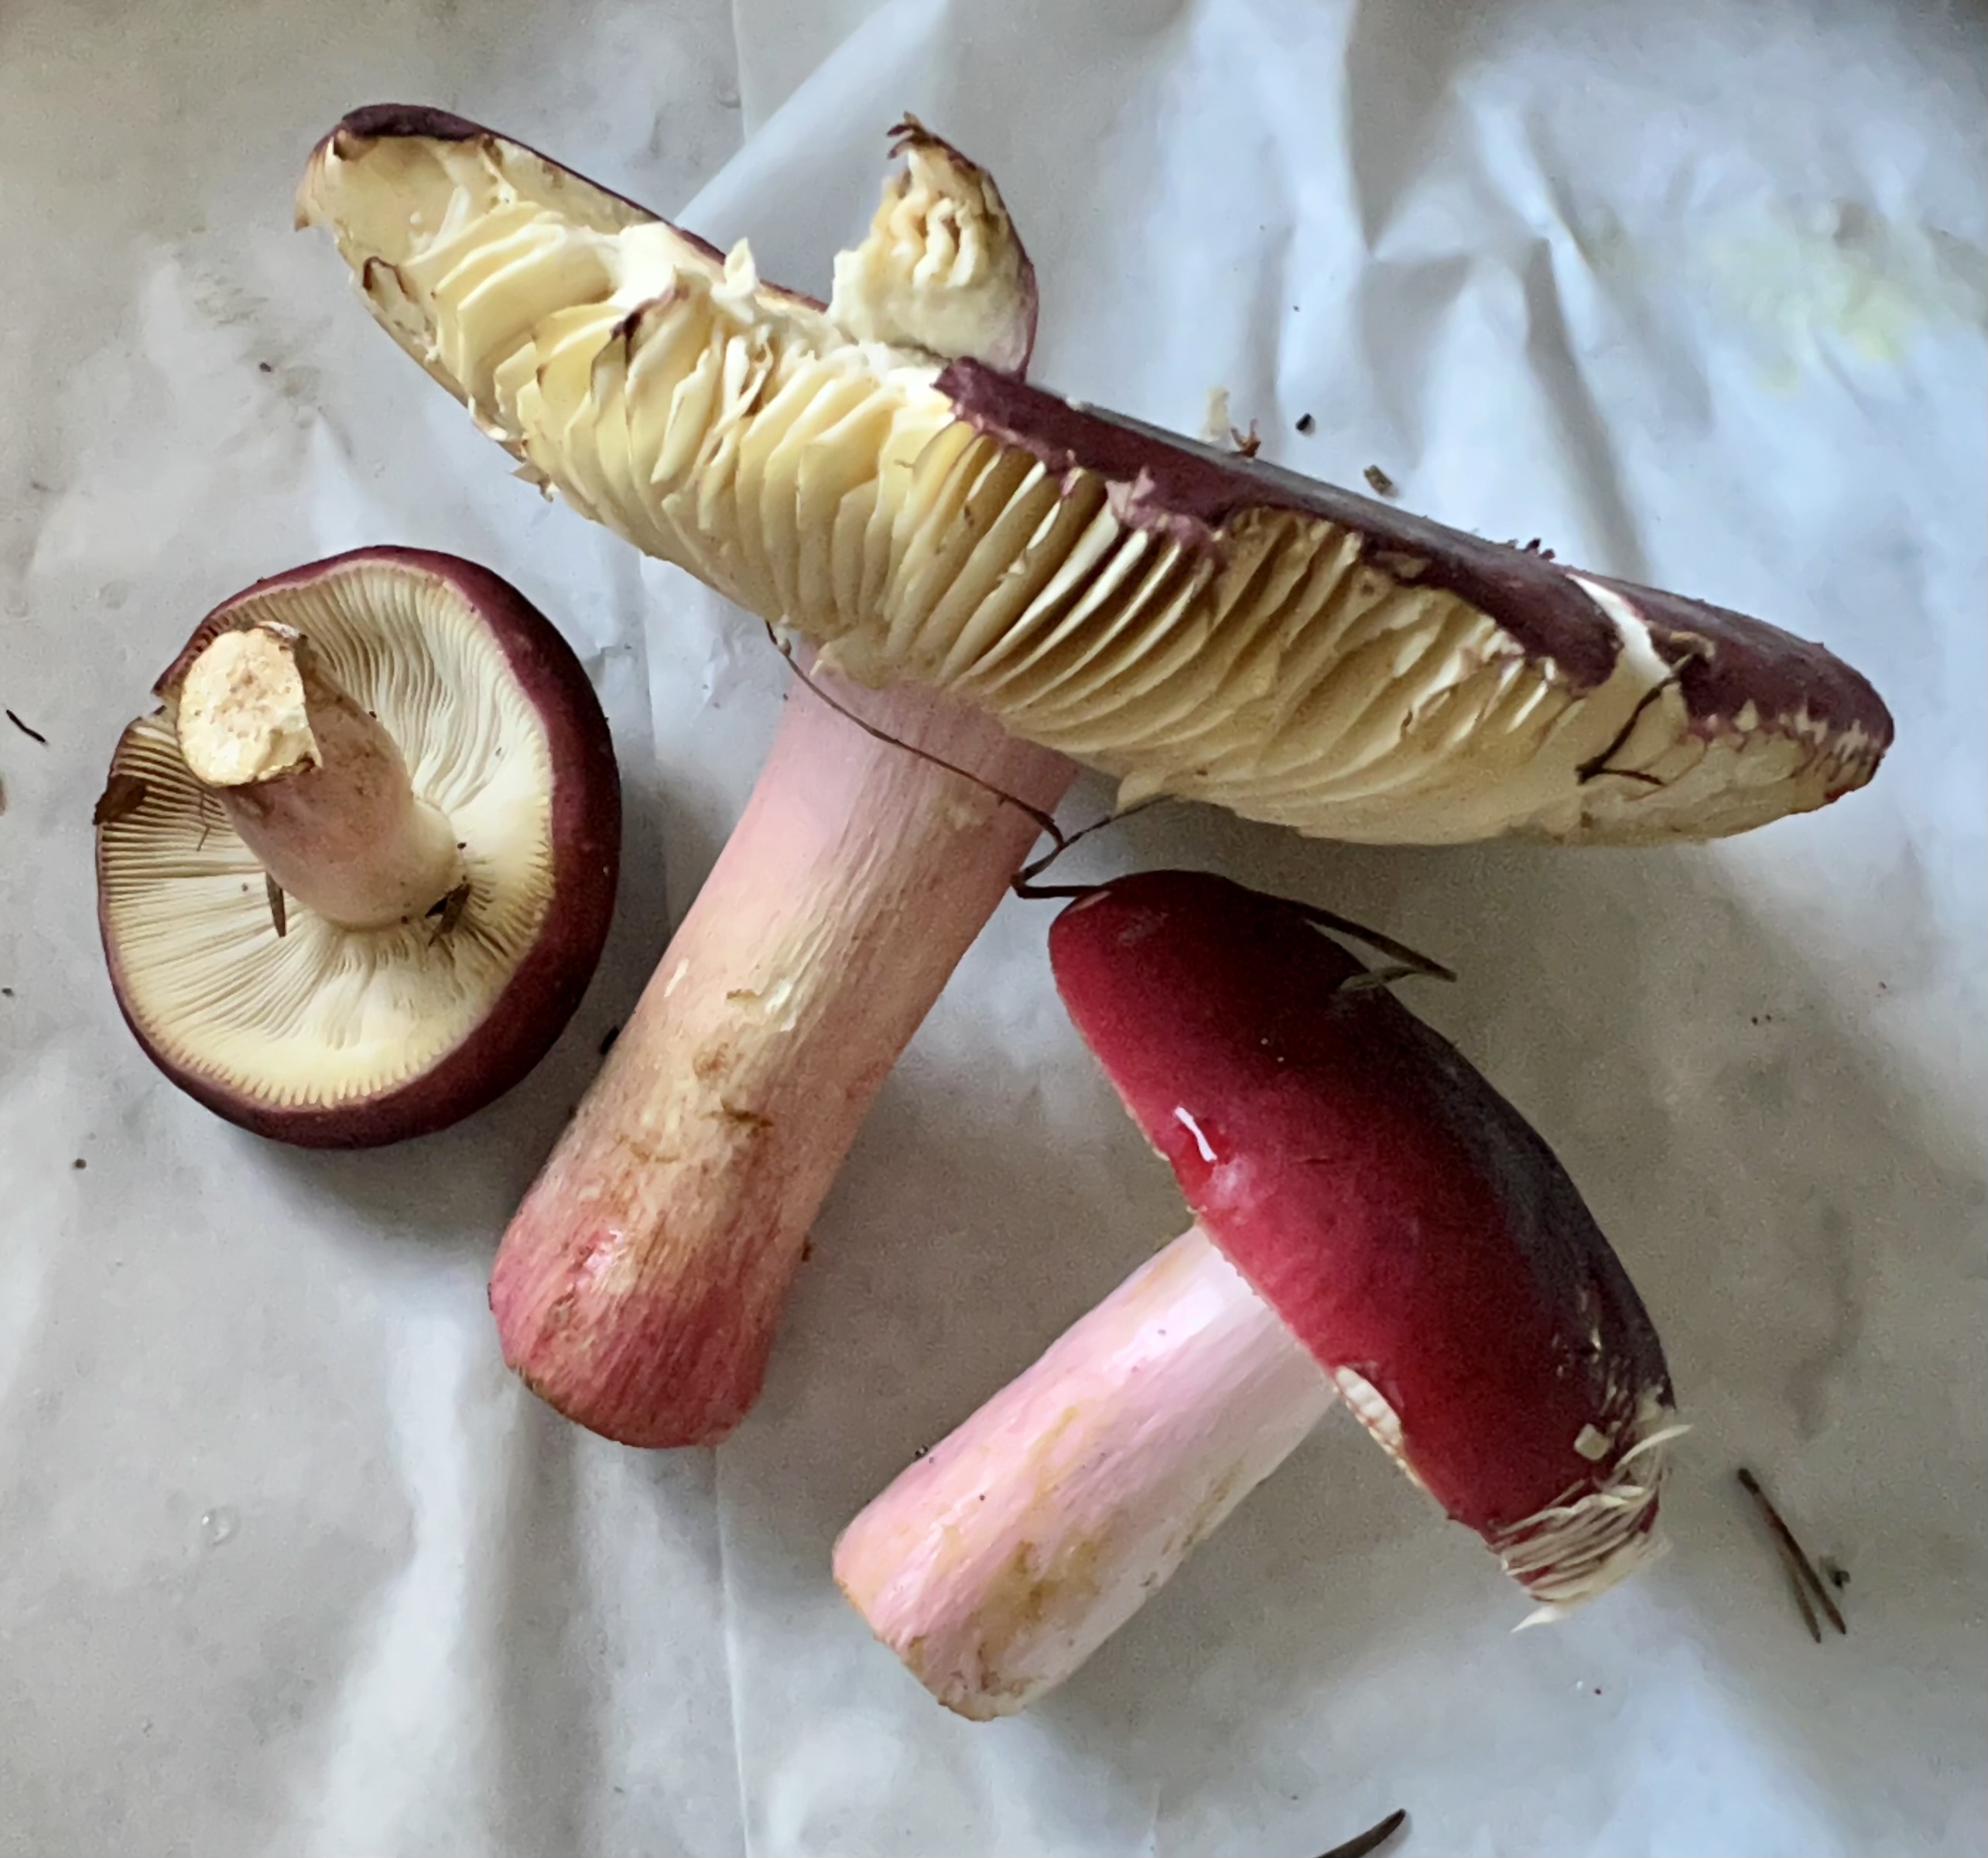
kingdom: Fungi
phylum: Basidiomycota
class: Agaricomycetes
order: Russulales
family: Russulaceae
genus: Russula
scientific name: Russula xerampelina
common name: hummer-skørhat
